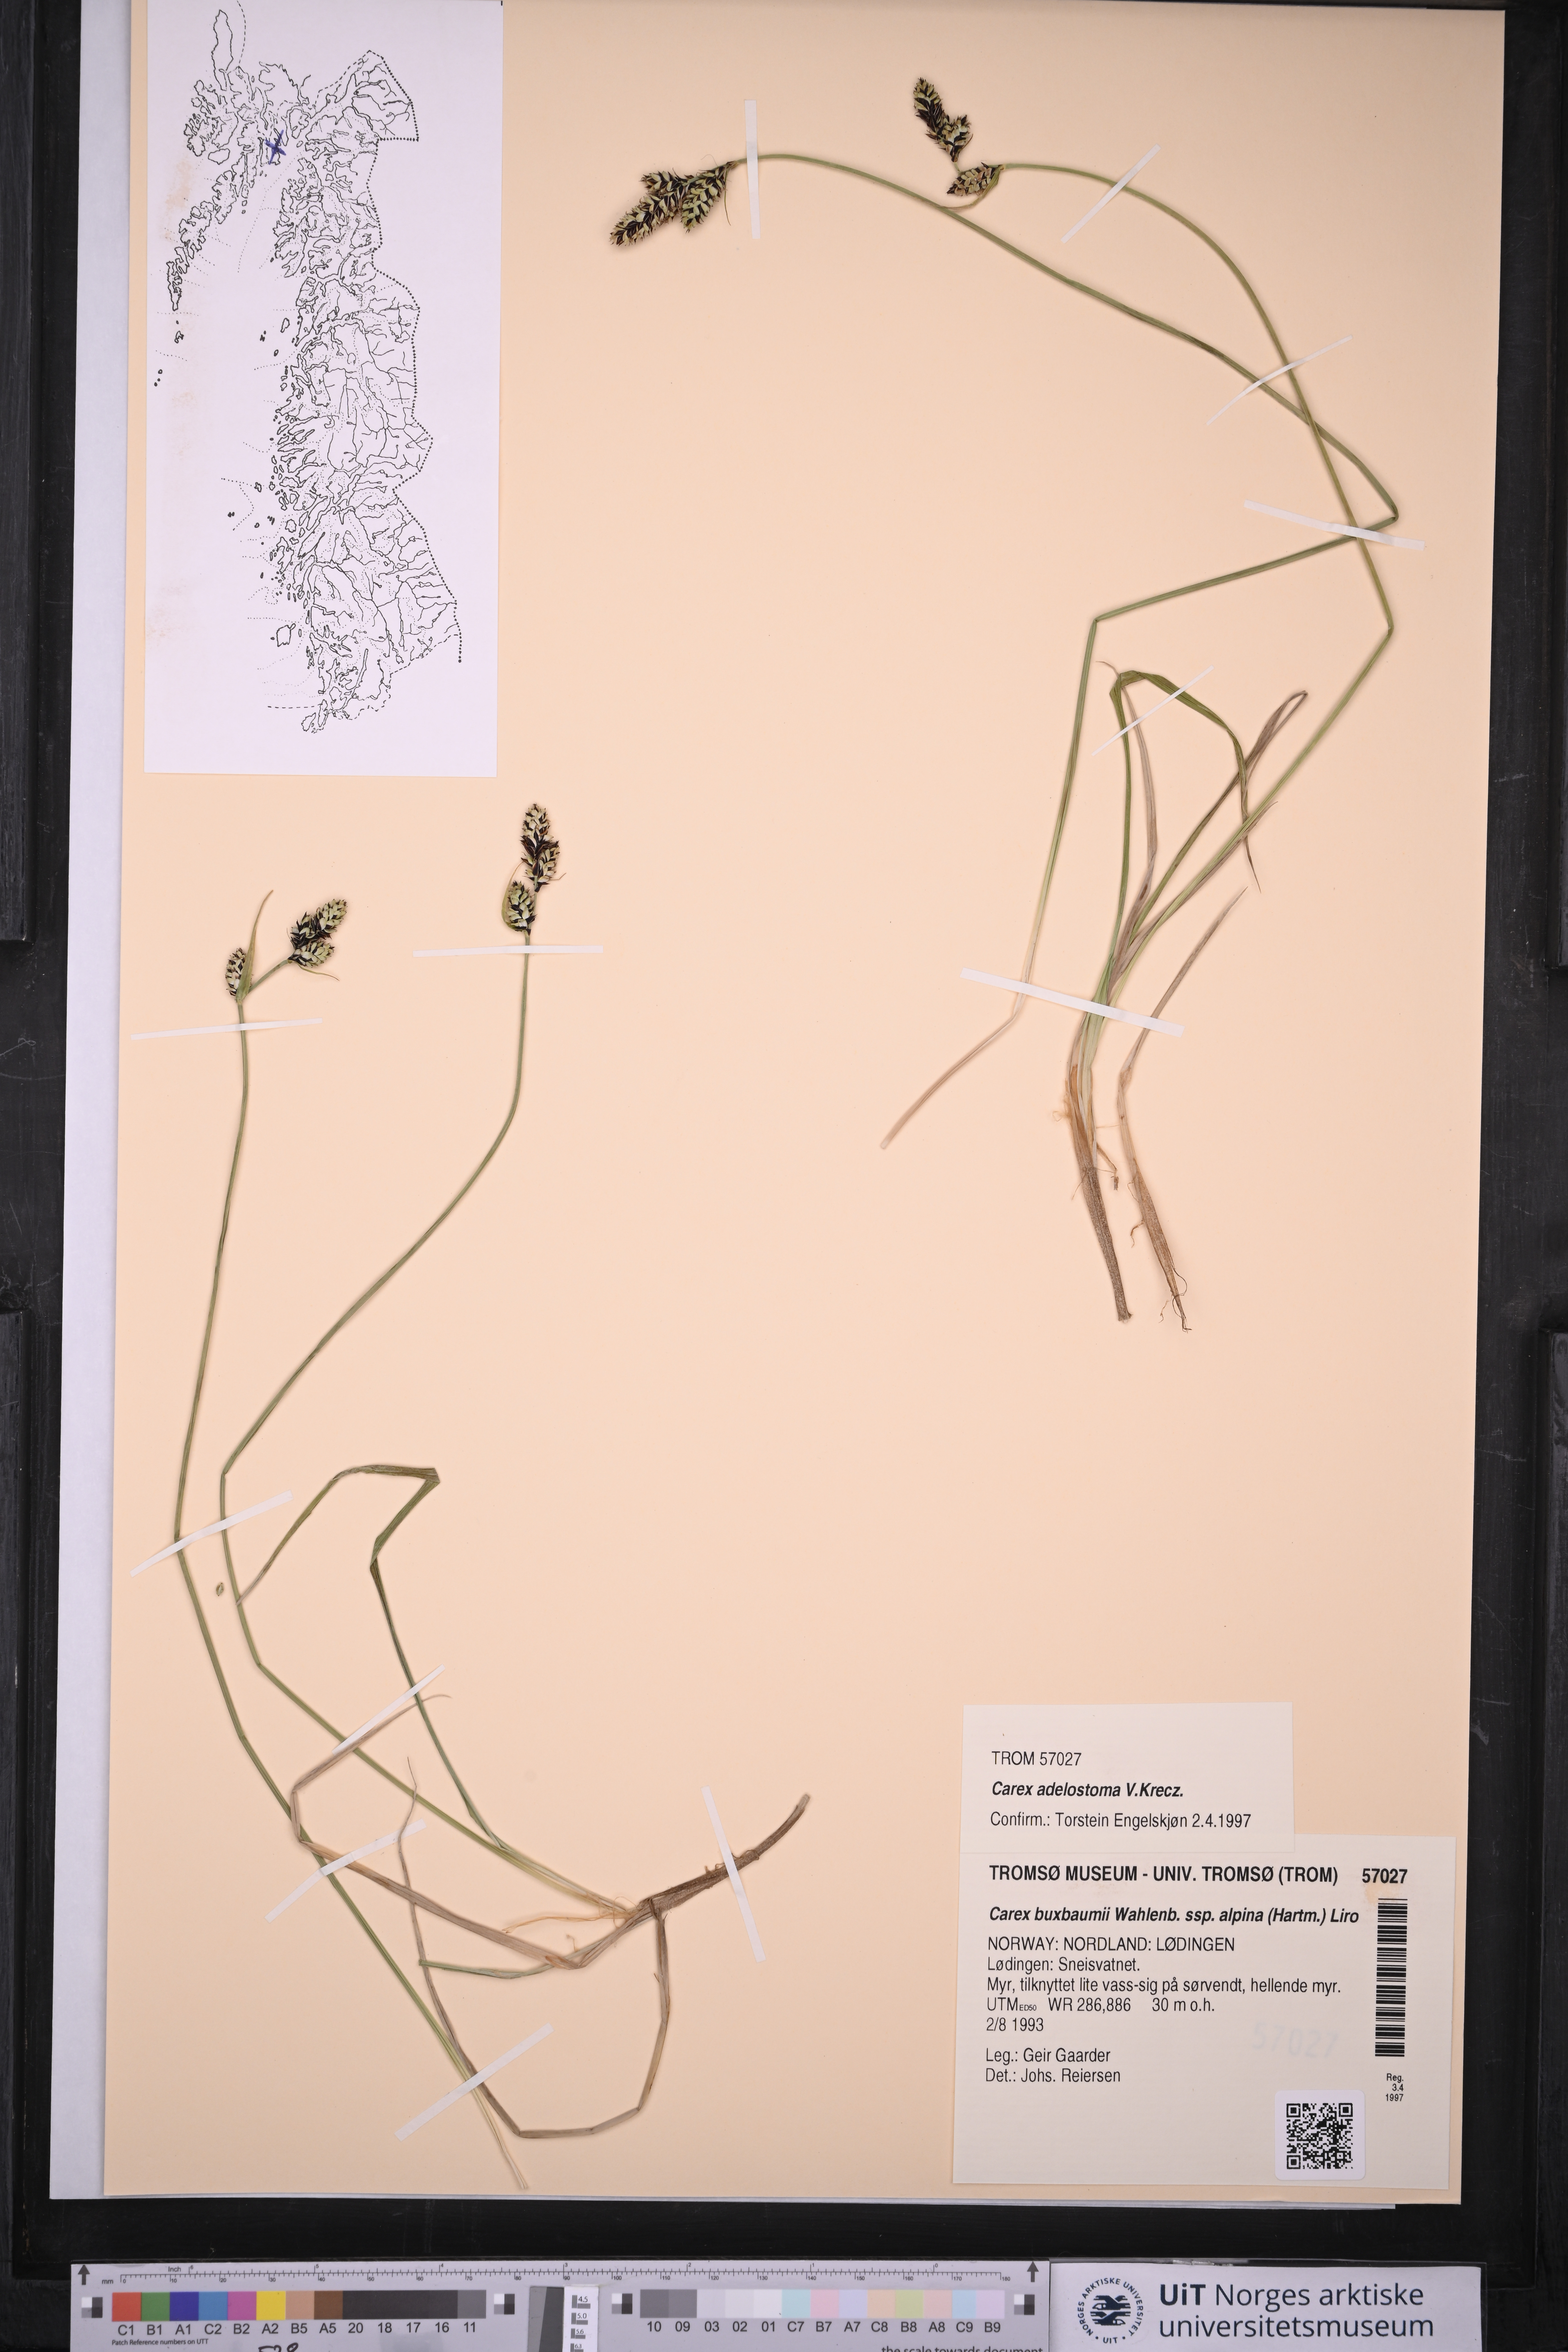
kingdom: Plantae
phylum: Tracheophyta
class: Liliopsida
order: Poales
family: Cyperaceae
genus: Carex
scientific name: Carex adelostoma
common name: Circumpolar sedge
